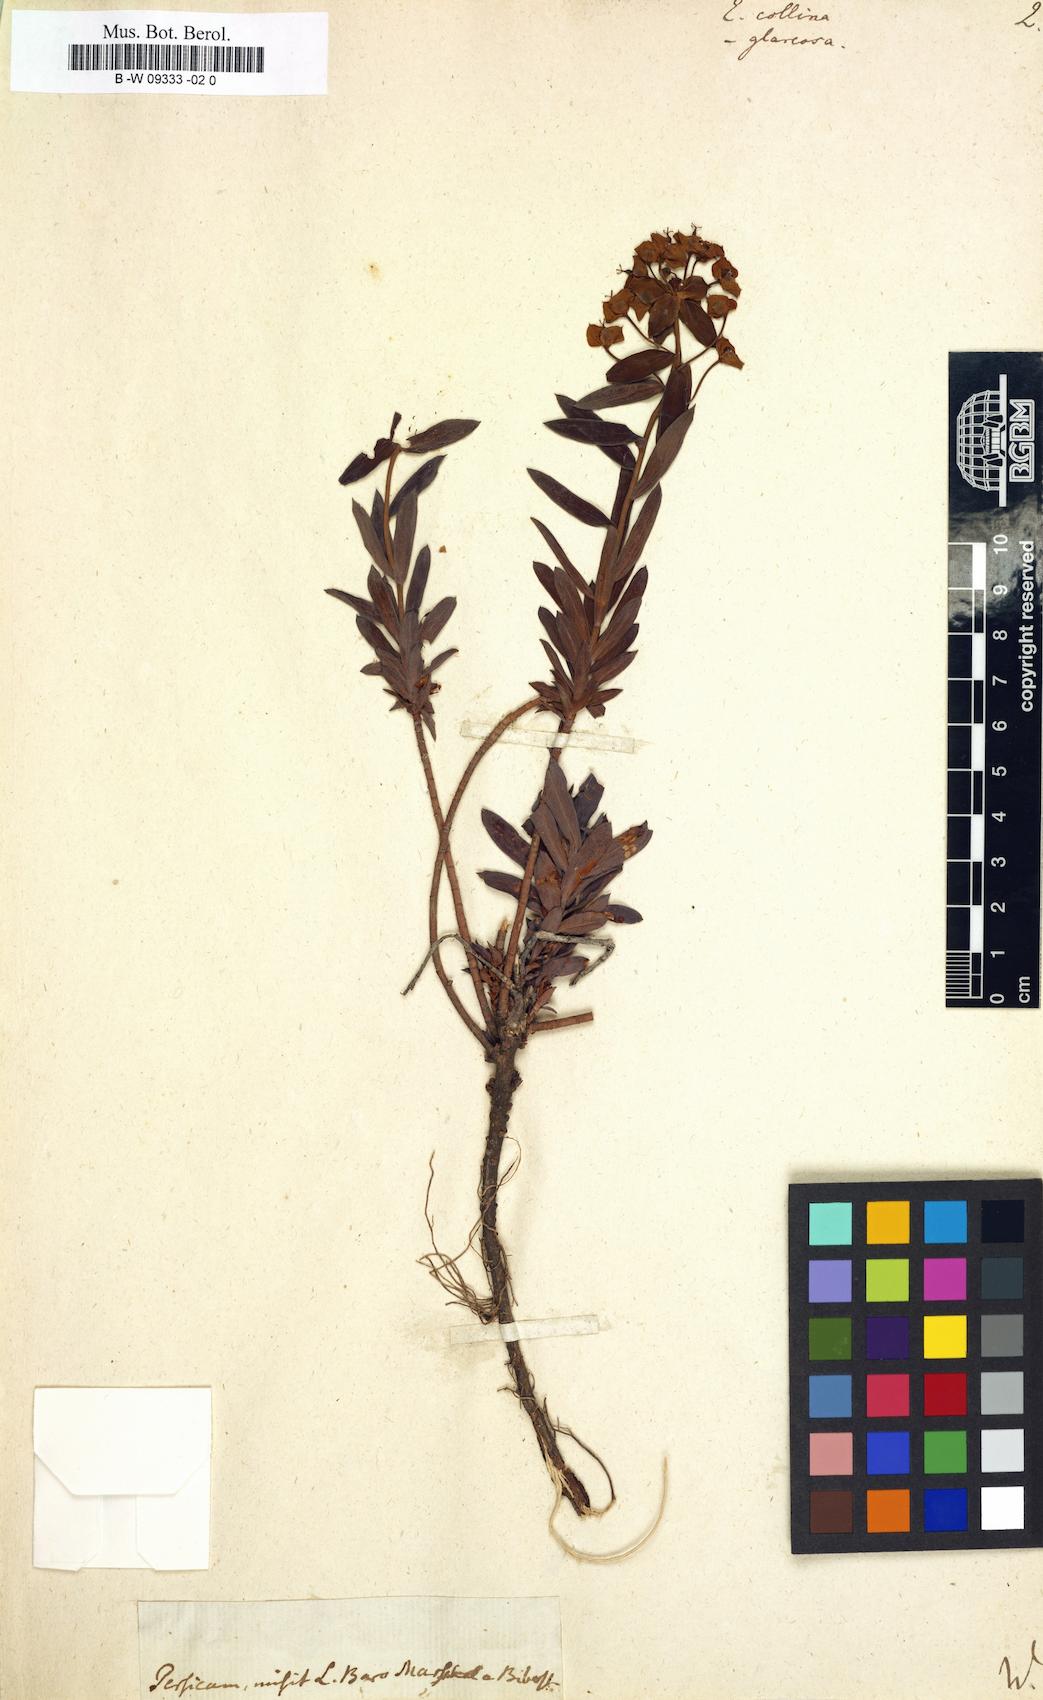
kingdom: Plantae
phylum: Tracheophyta
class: Magnoliopsida
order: Malpighiales
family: Euphorbiaceae
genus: Euphorbia
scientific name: Euphorbia collina
